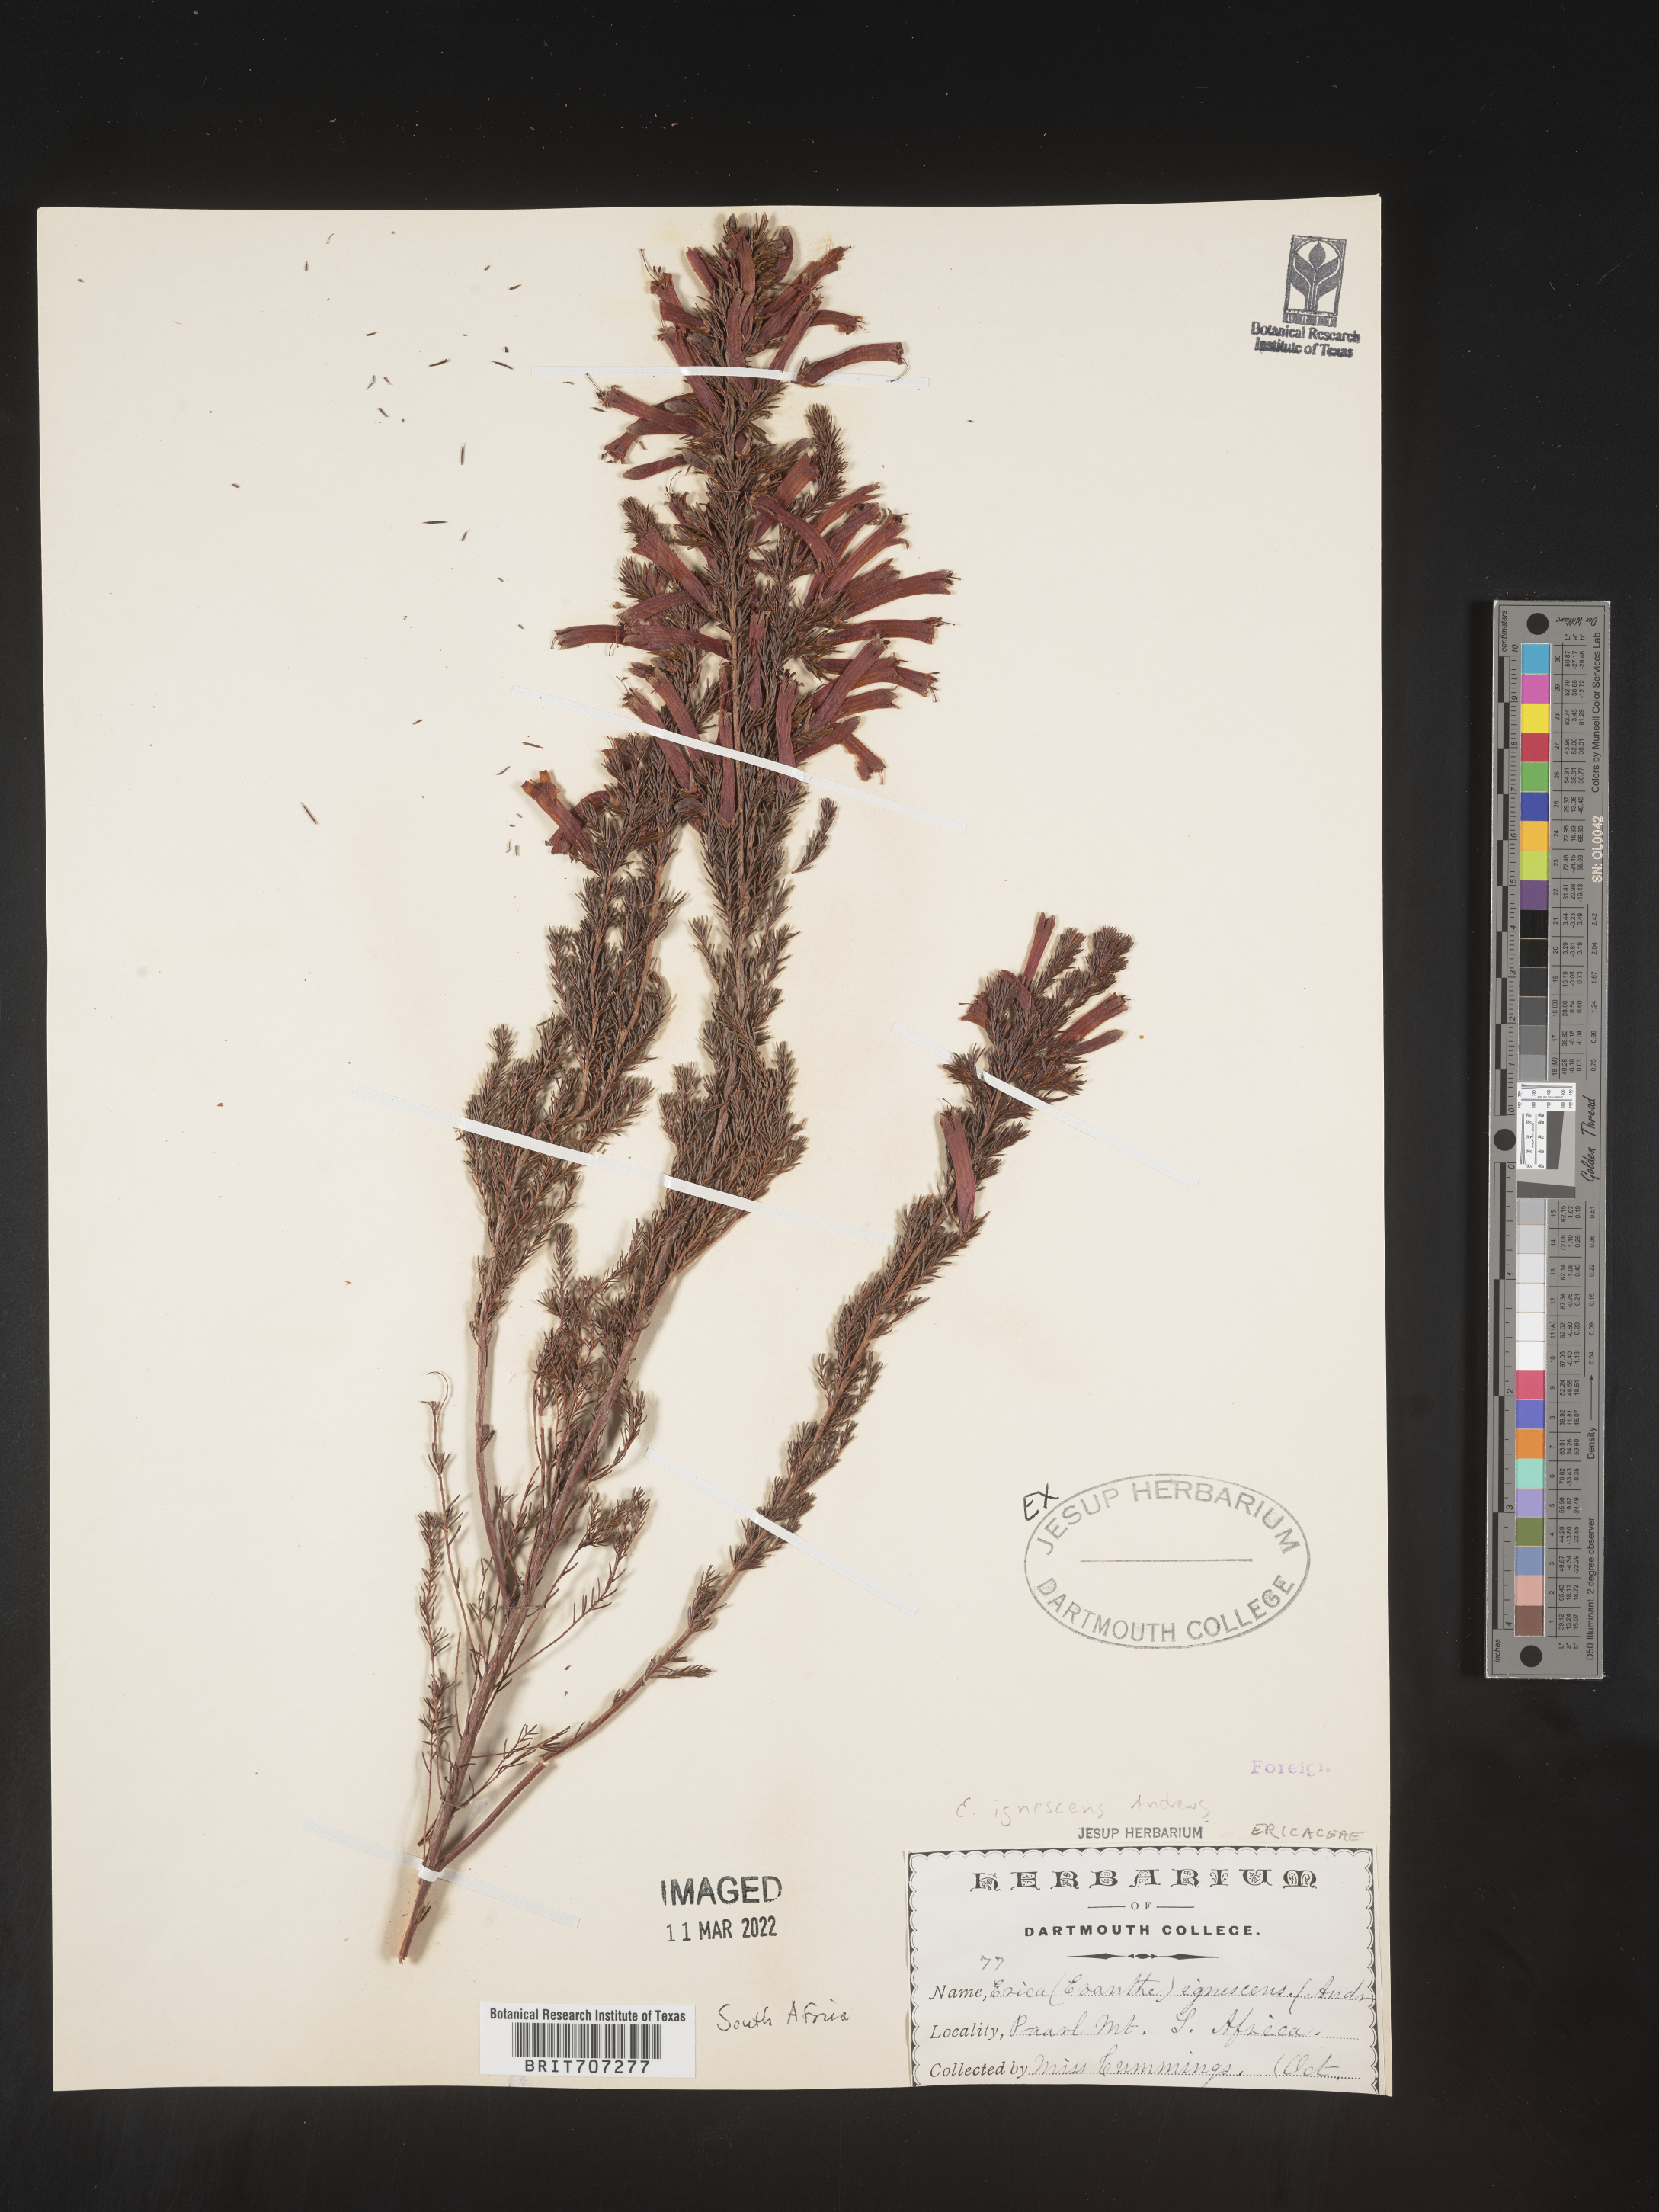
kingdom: Plantae
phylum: Tracheophyta
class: Magnoliopsida
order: Ericales
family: Ericaceae
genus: Erica
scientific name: Erica
